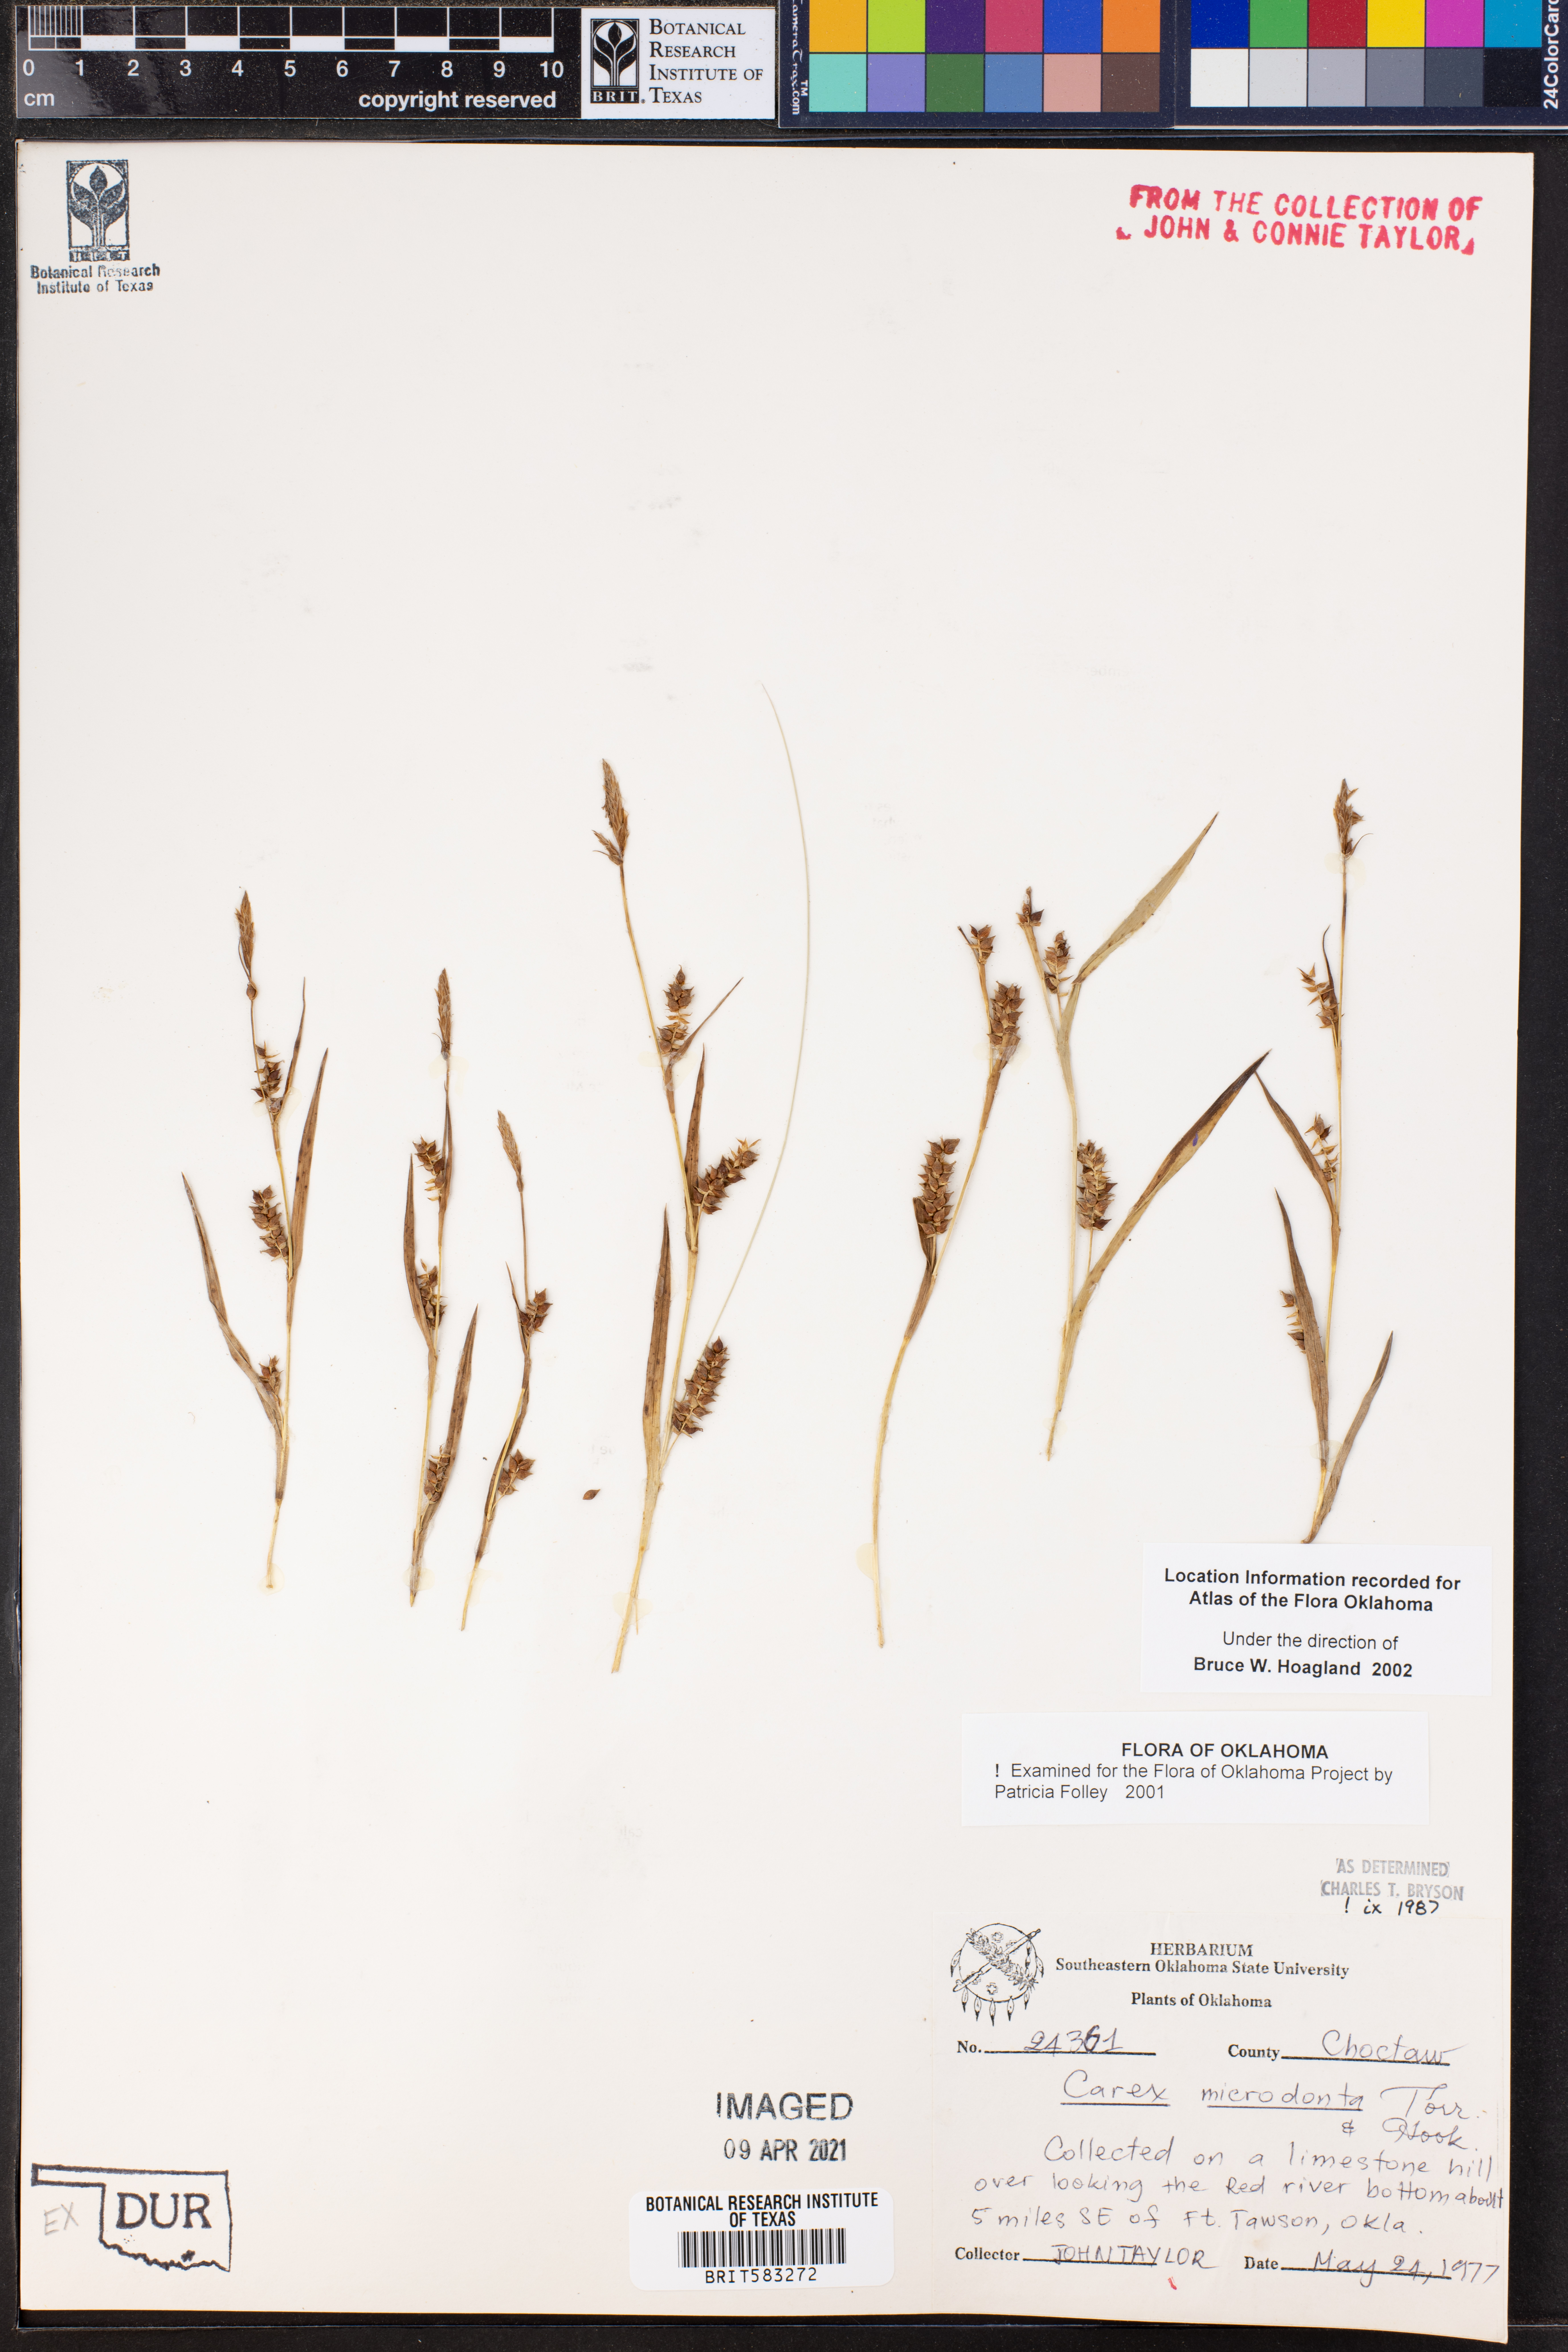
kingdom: Plantae
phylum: Tracheophyta
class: Liliopsida
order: Poales
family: Cyperaceae
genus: Carex
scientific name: Carex microdonta
